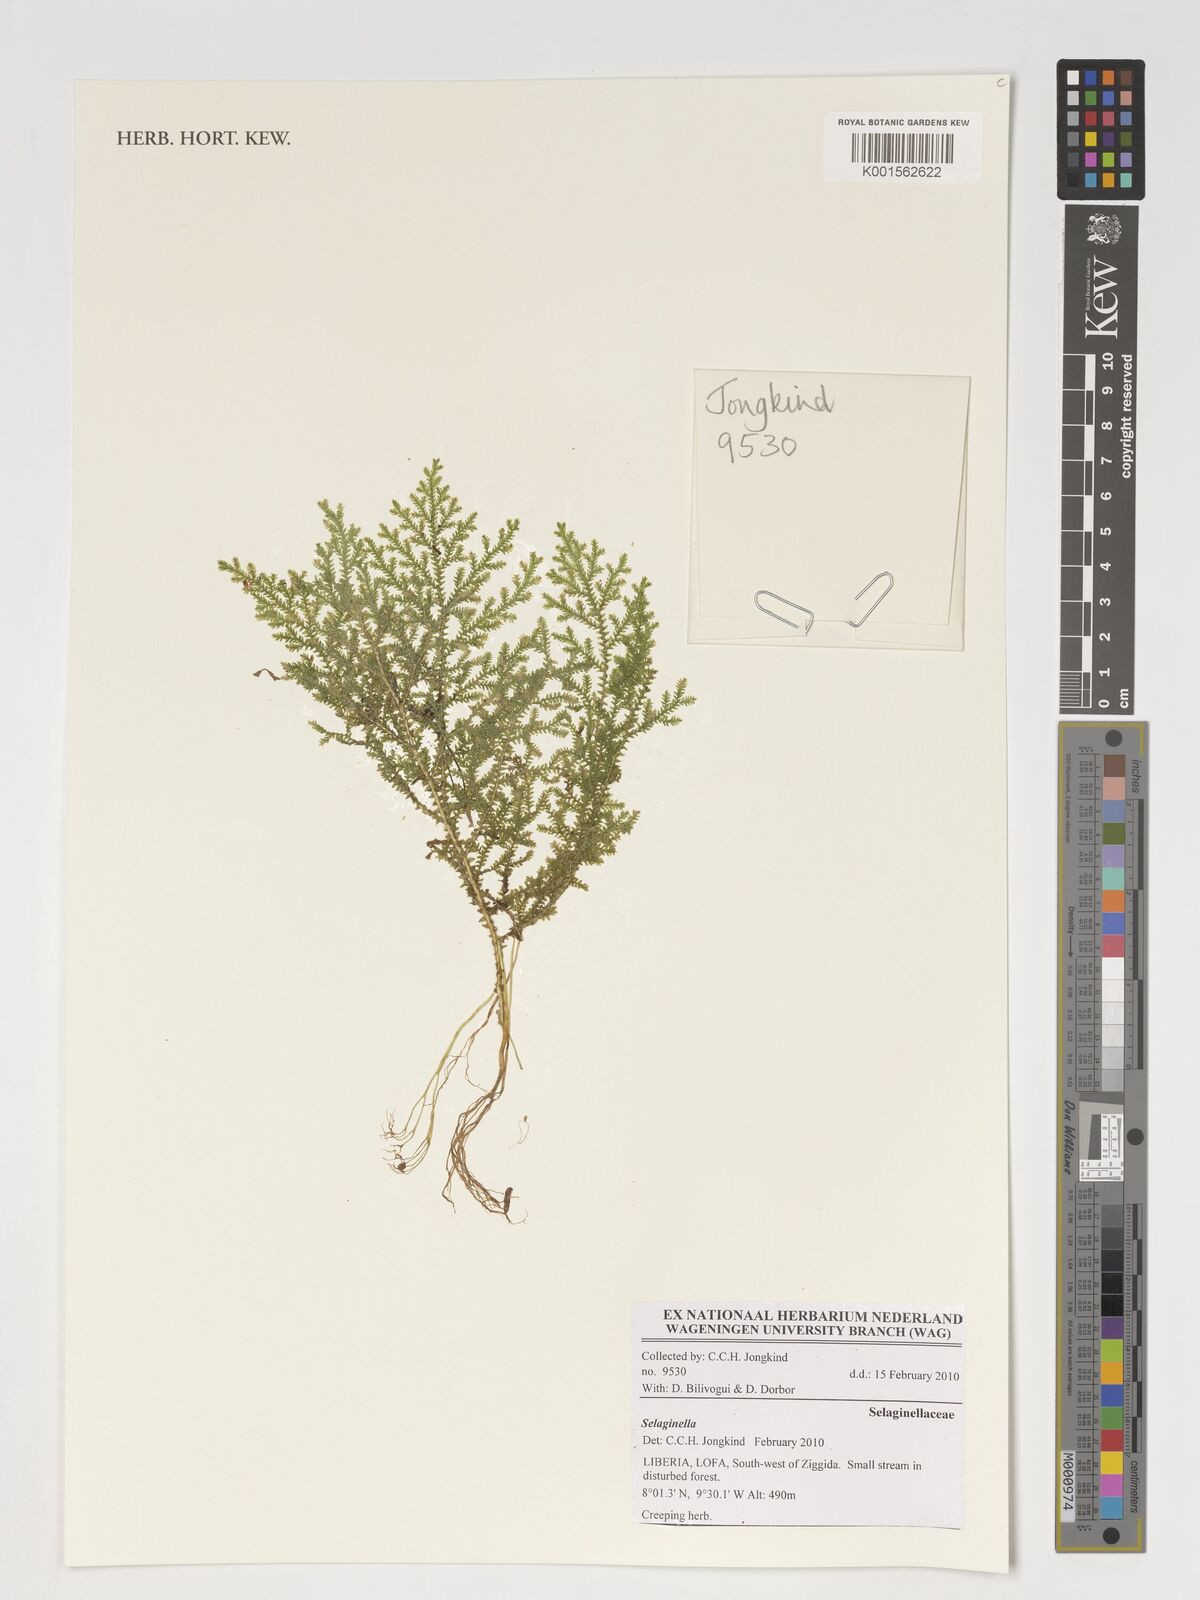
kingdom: Plantae
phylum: Tracheophyta
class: Lycopodiopsida
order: Selaginellales
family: Selaginellaceae
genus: Selaginella
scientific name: Selaginella
